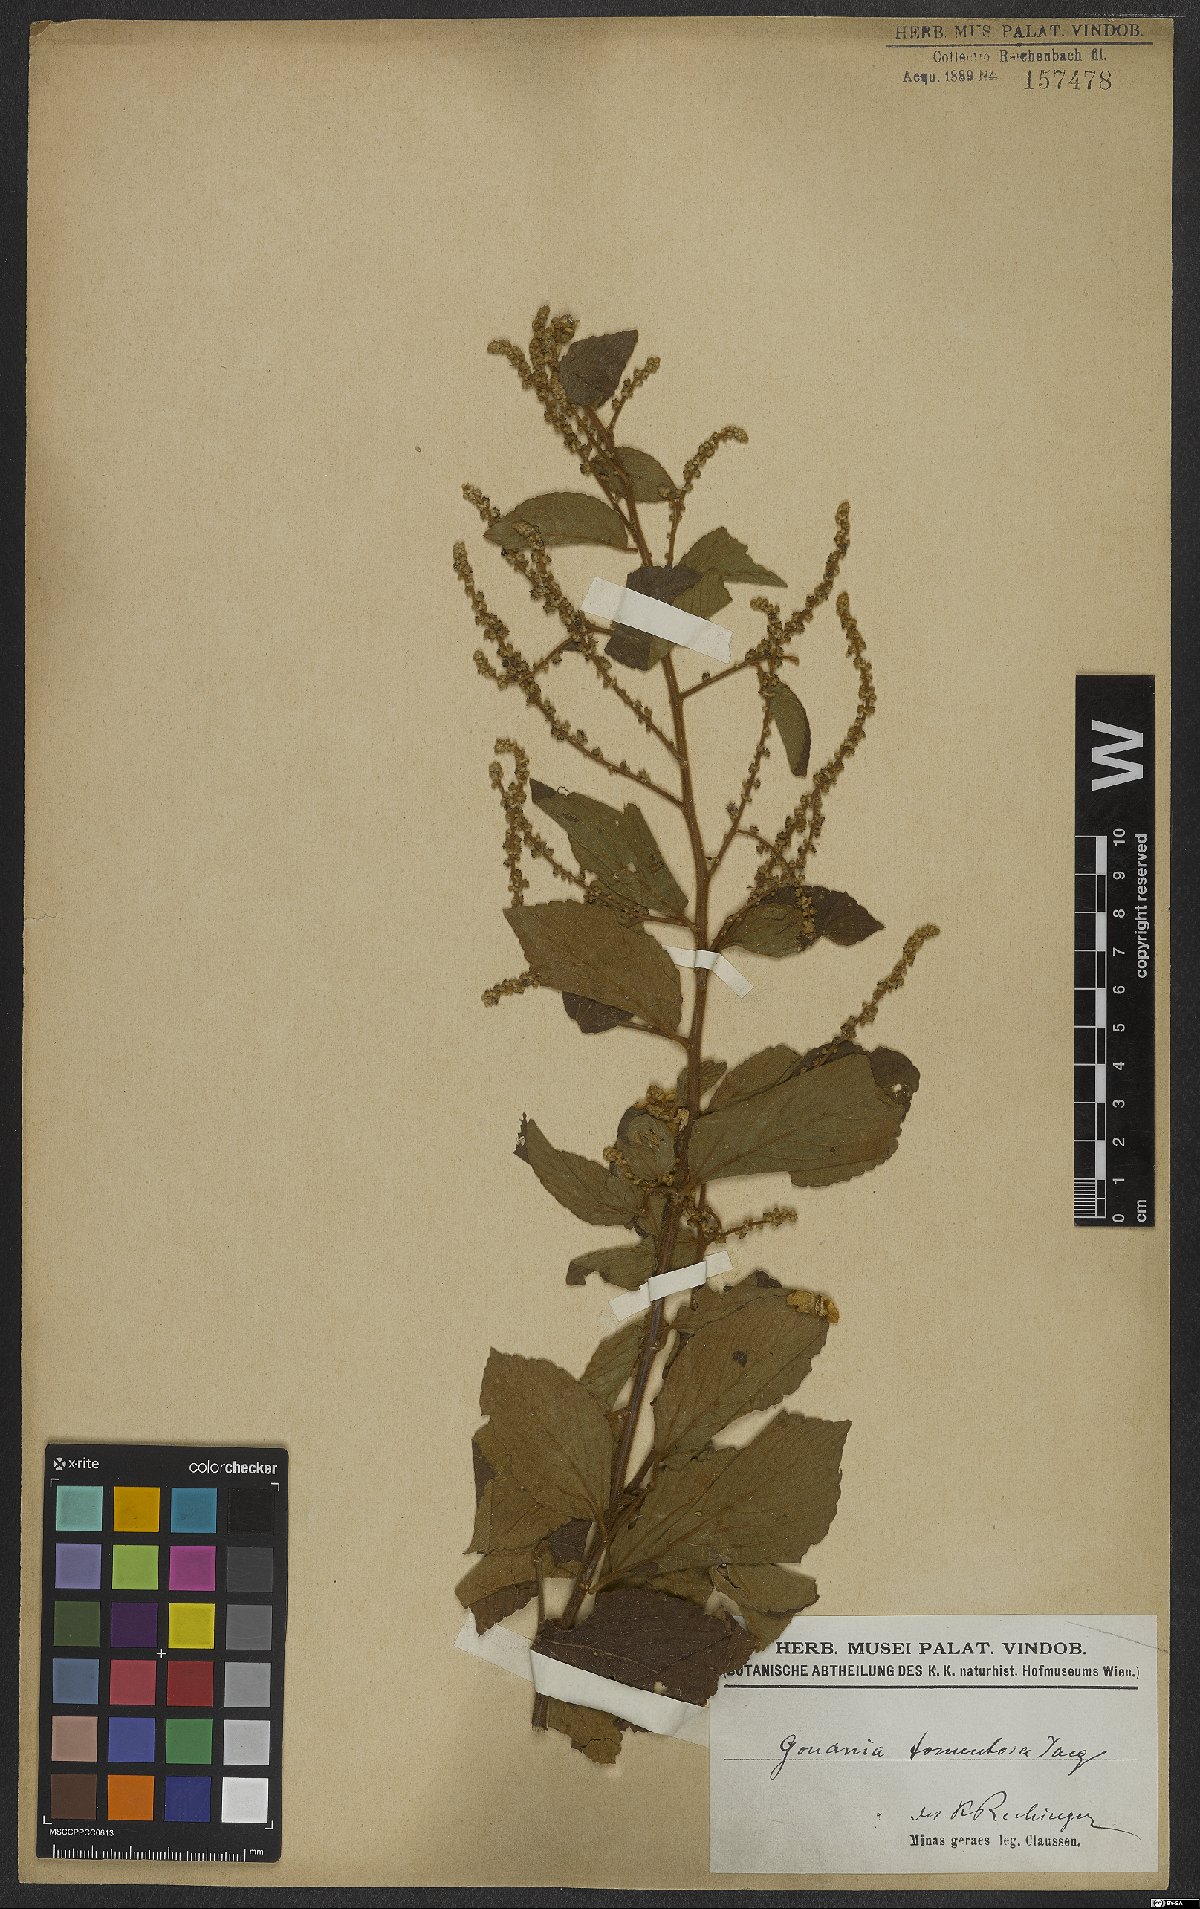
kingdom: Plantae
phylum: Tracheophyta
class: Magnoliopsida
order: Rosales
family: Rhamnaceae
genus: Gouania
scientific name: Gouania polygama
